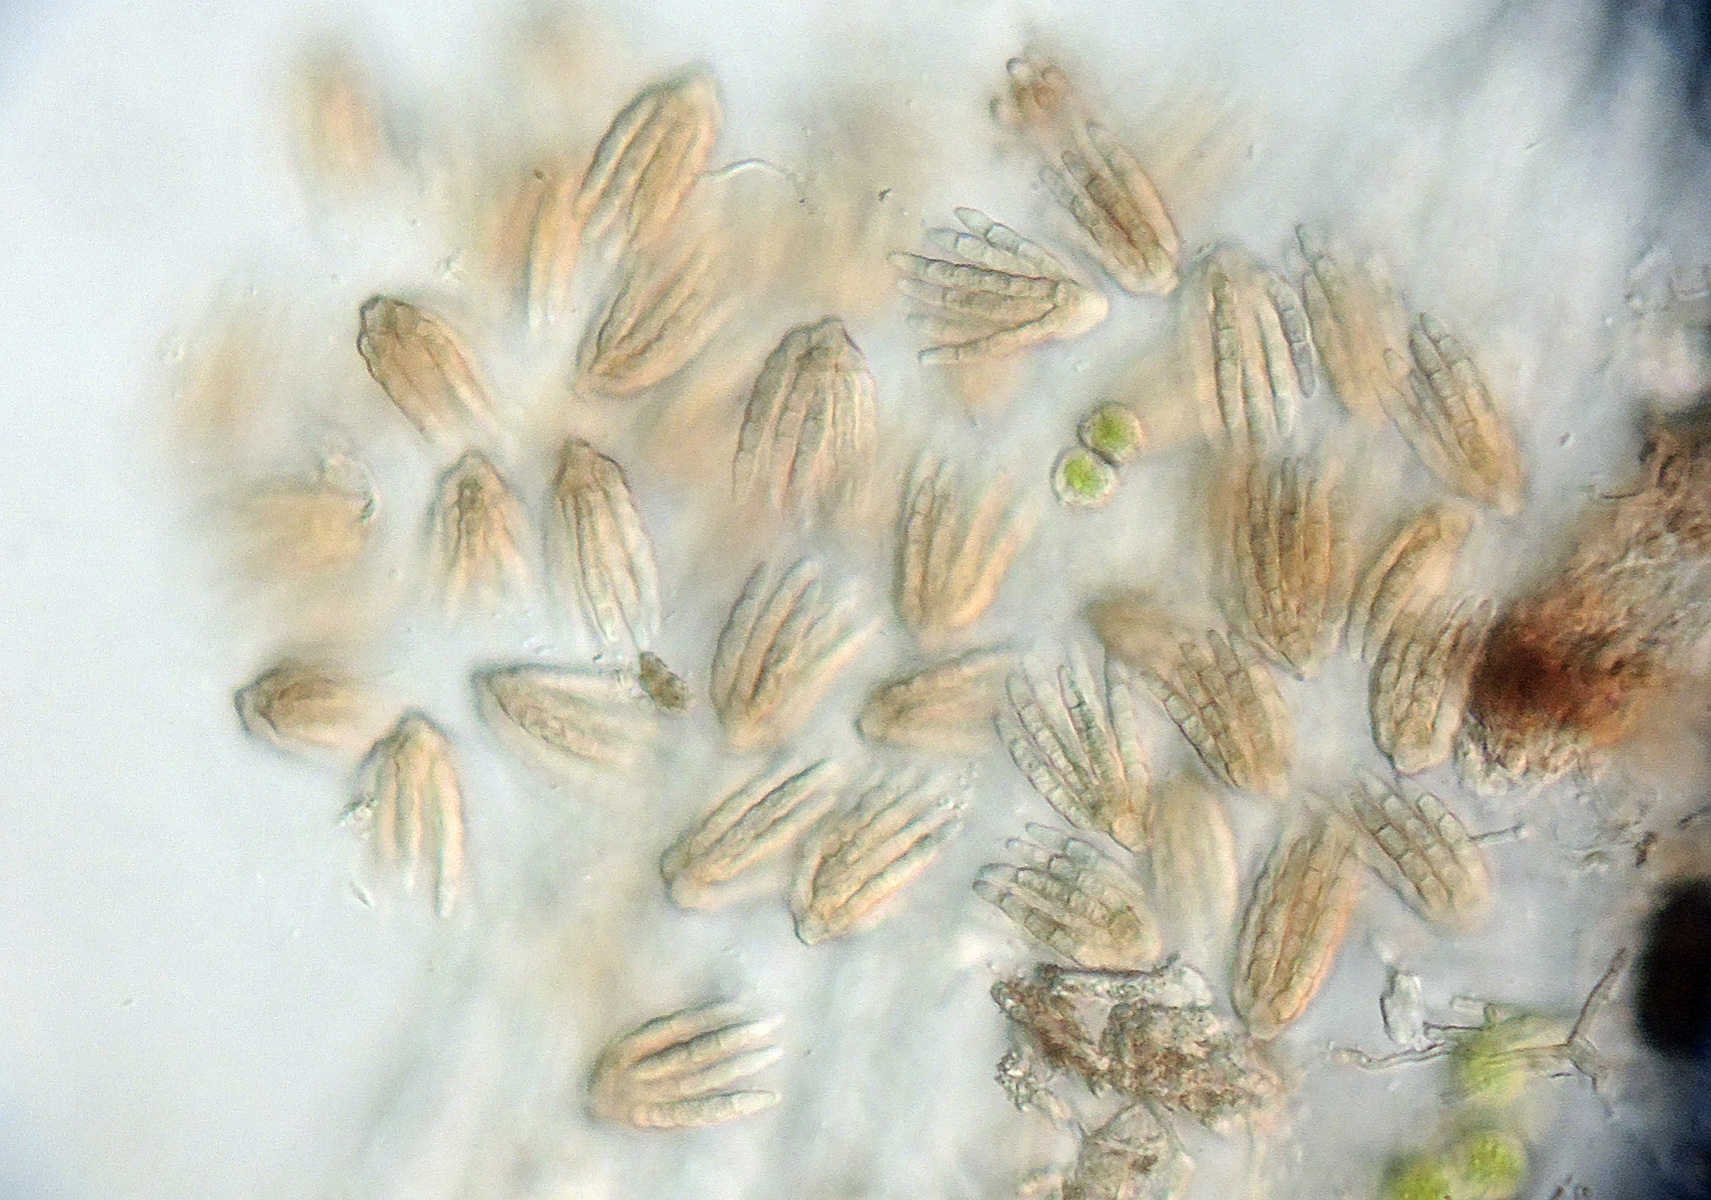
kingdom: Fungi
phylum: Ascomycota
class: Dothideomycetes
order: Pleosporales
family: Cryptocoryneaceae
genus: Cryptocoryneum
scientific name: Cryptocoryneum psammae
